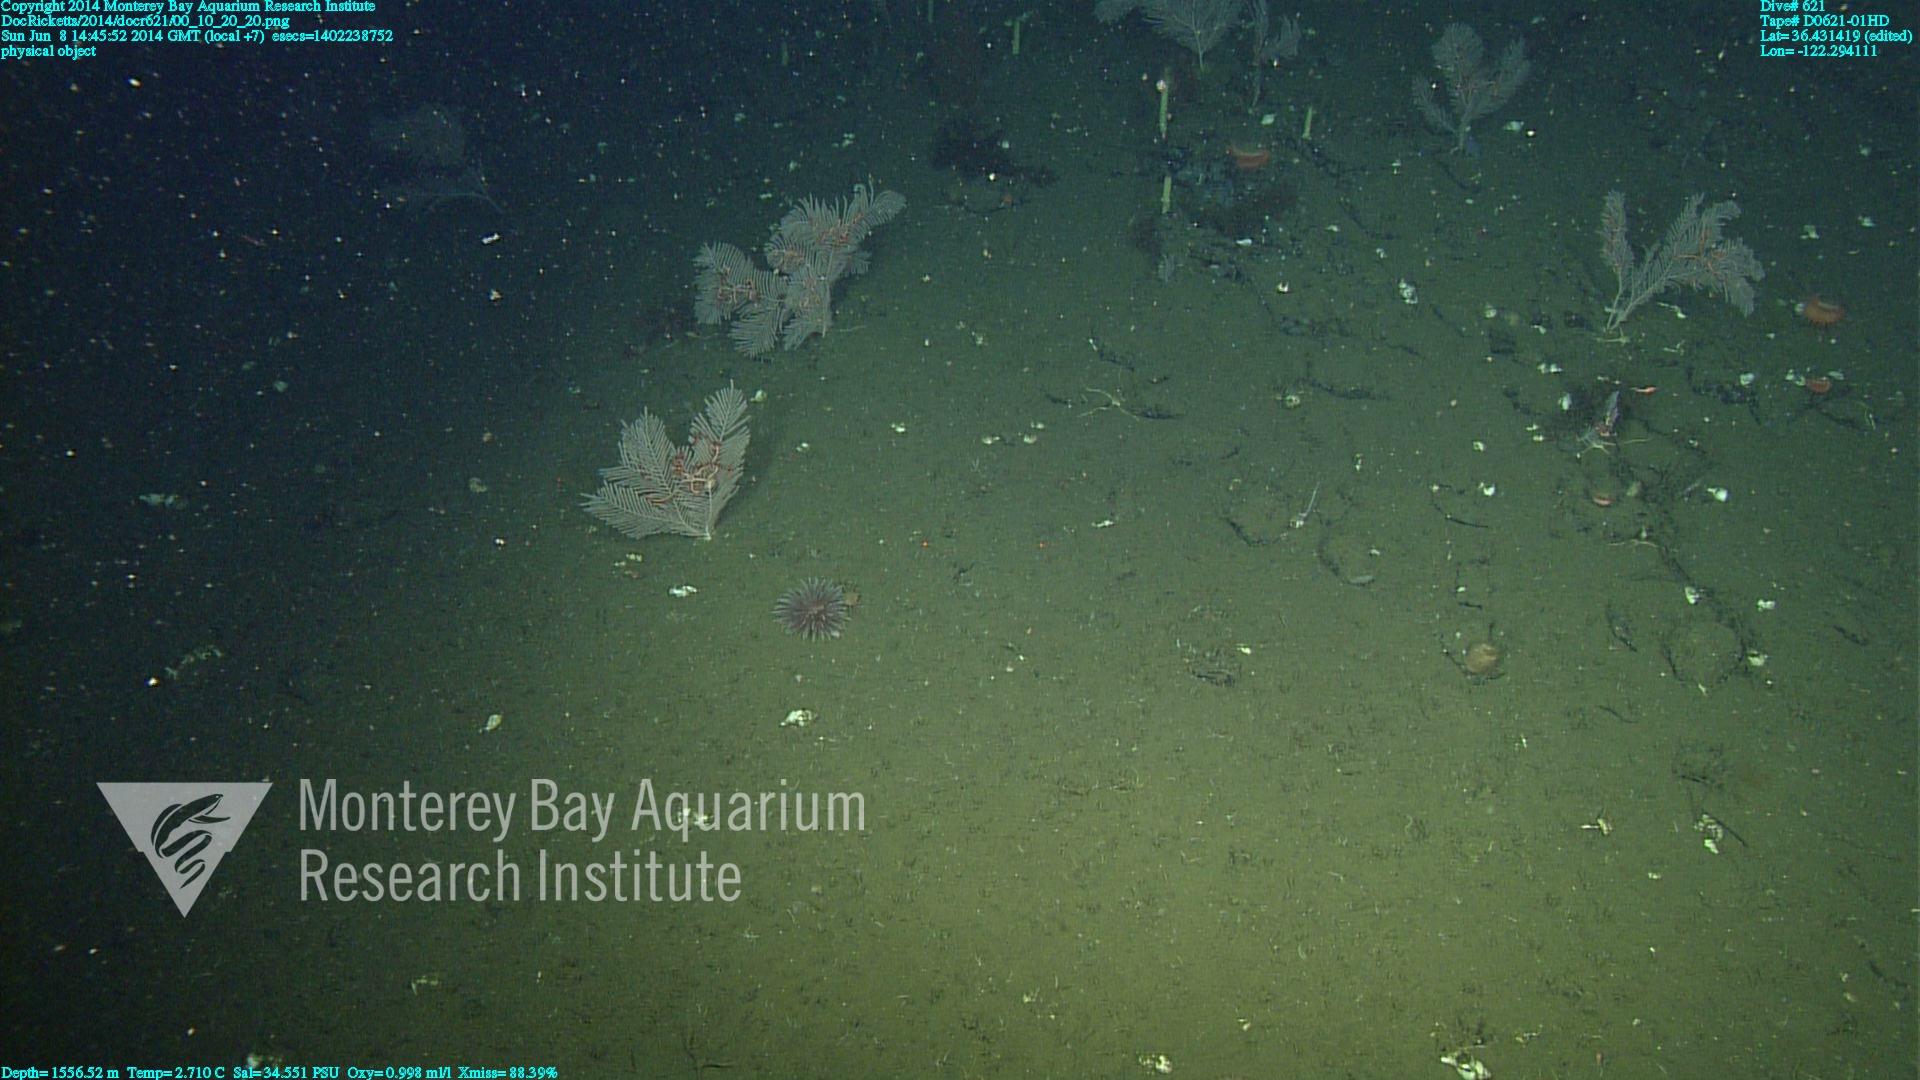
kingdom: Animalia
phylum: Cnidaria
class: Anthozoa
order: Scleralcyonacea
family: Primnoidae
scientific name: Primnoidae
